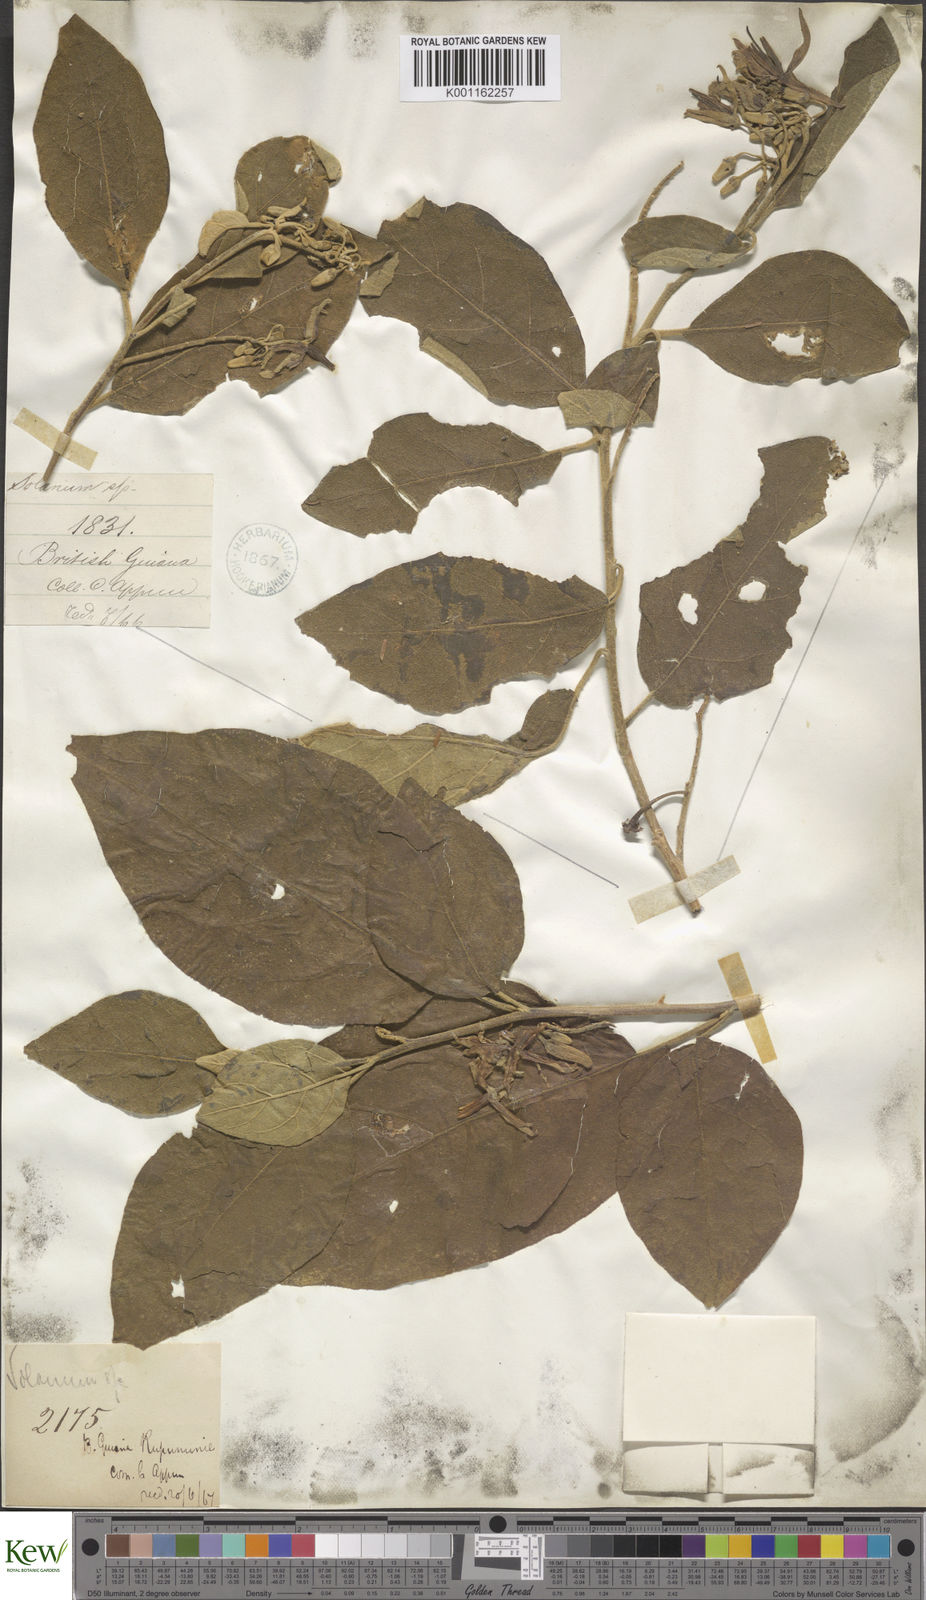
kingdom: Plantae
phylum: Tracheophyta
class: Magnoliopsida
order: Solanales
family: Solanaceae
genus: Solanum
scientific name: Solanum subinerme
